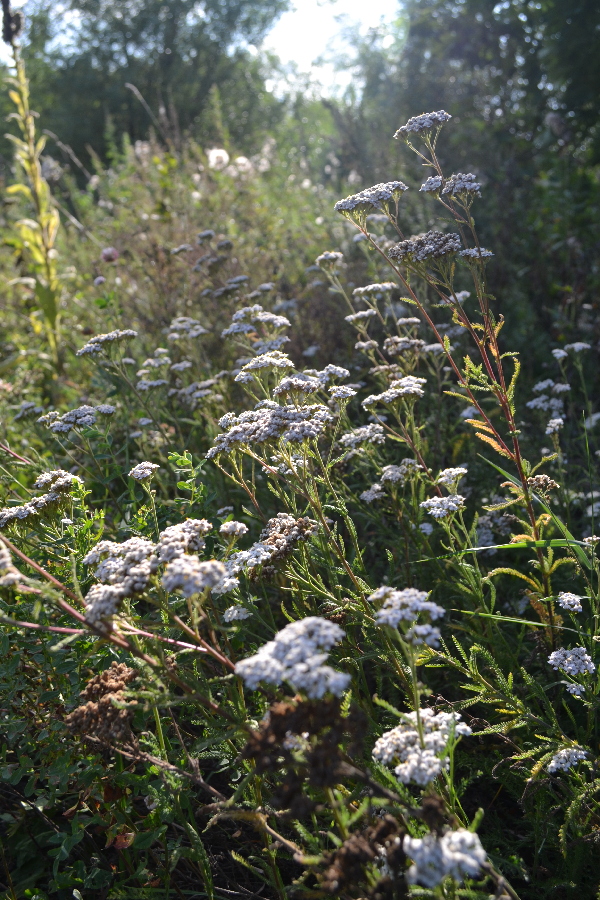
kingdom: Plantae
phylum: Tracheophyta
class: Magnoliopsida
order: Asterales
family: Asteraceae
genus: Achillea
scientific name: Achillea millefolium
